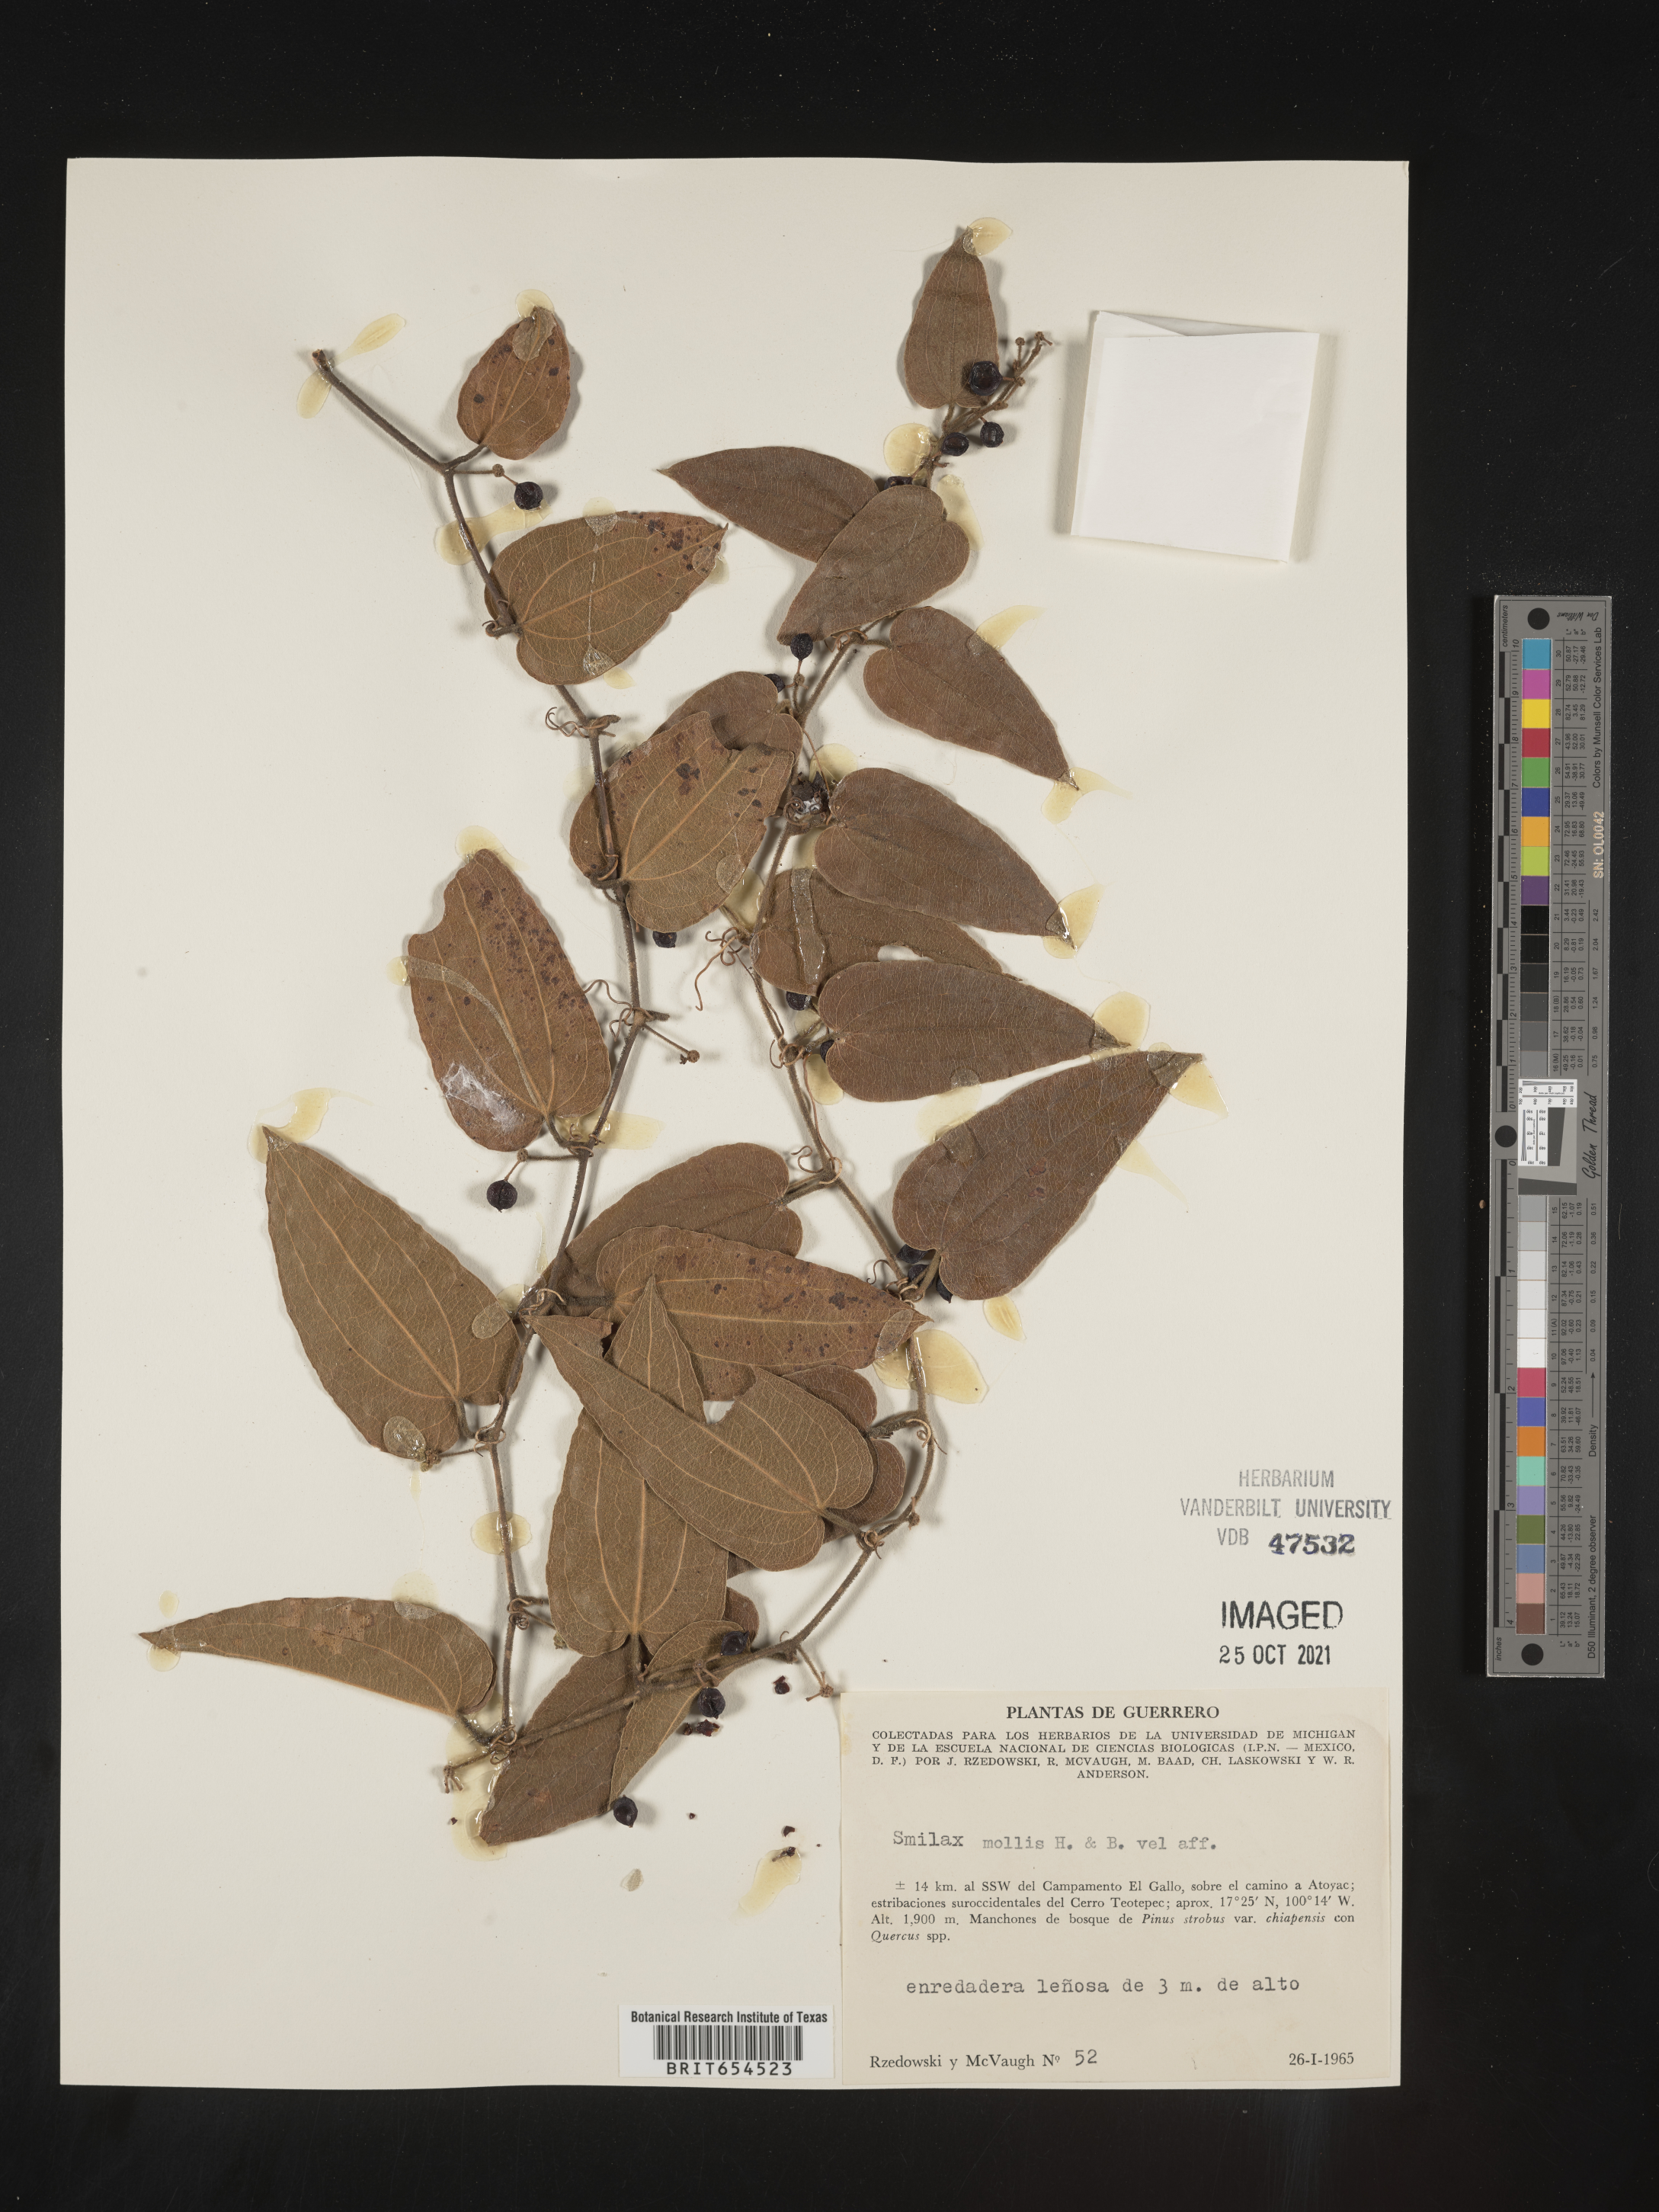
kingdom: Plantae
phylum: Tracheophyta
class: Liliopsida
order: Liliales
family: Smilacaceae
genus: Smilax
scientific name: Smilax
